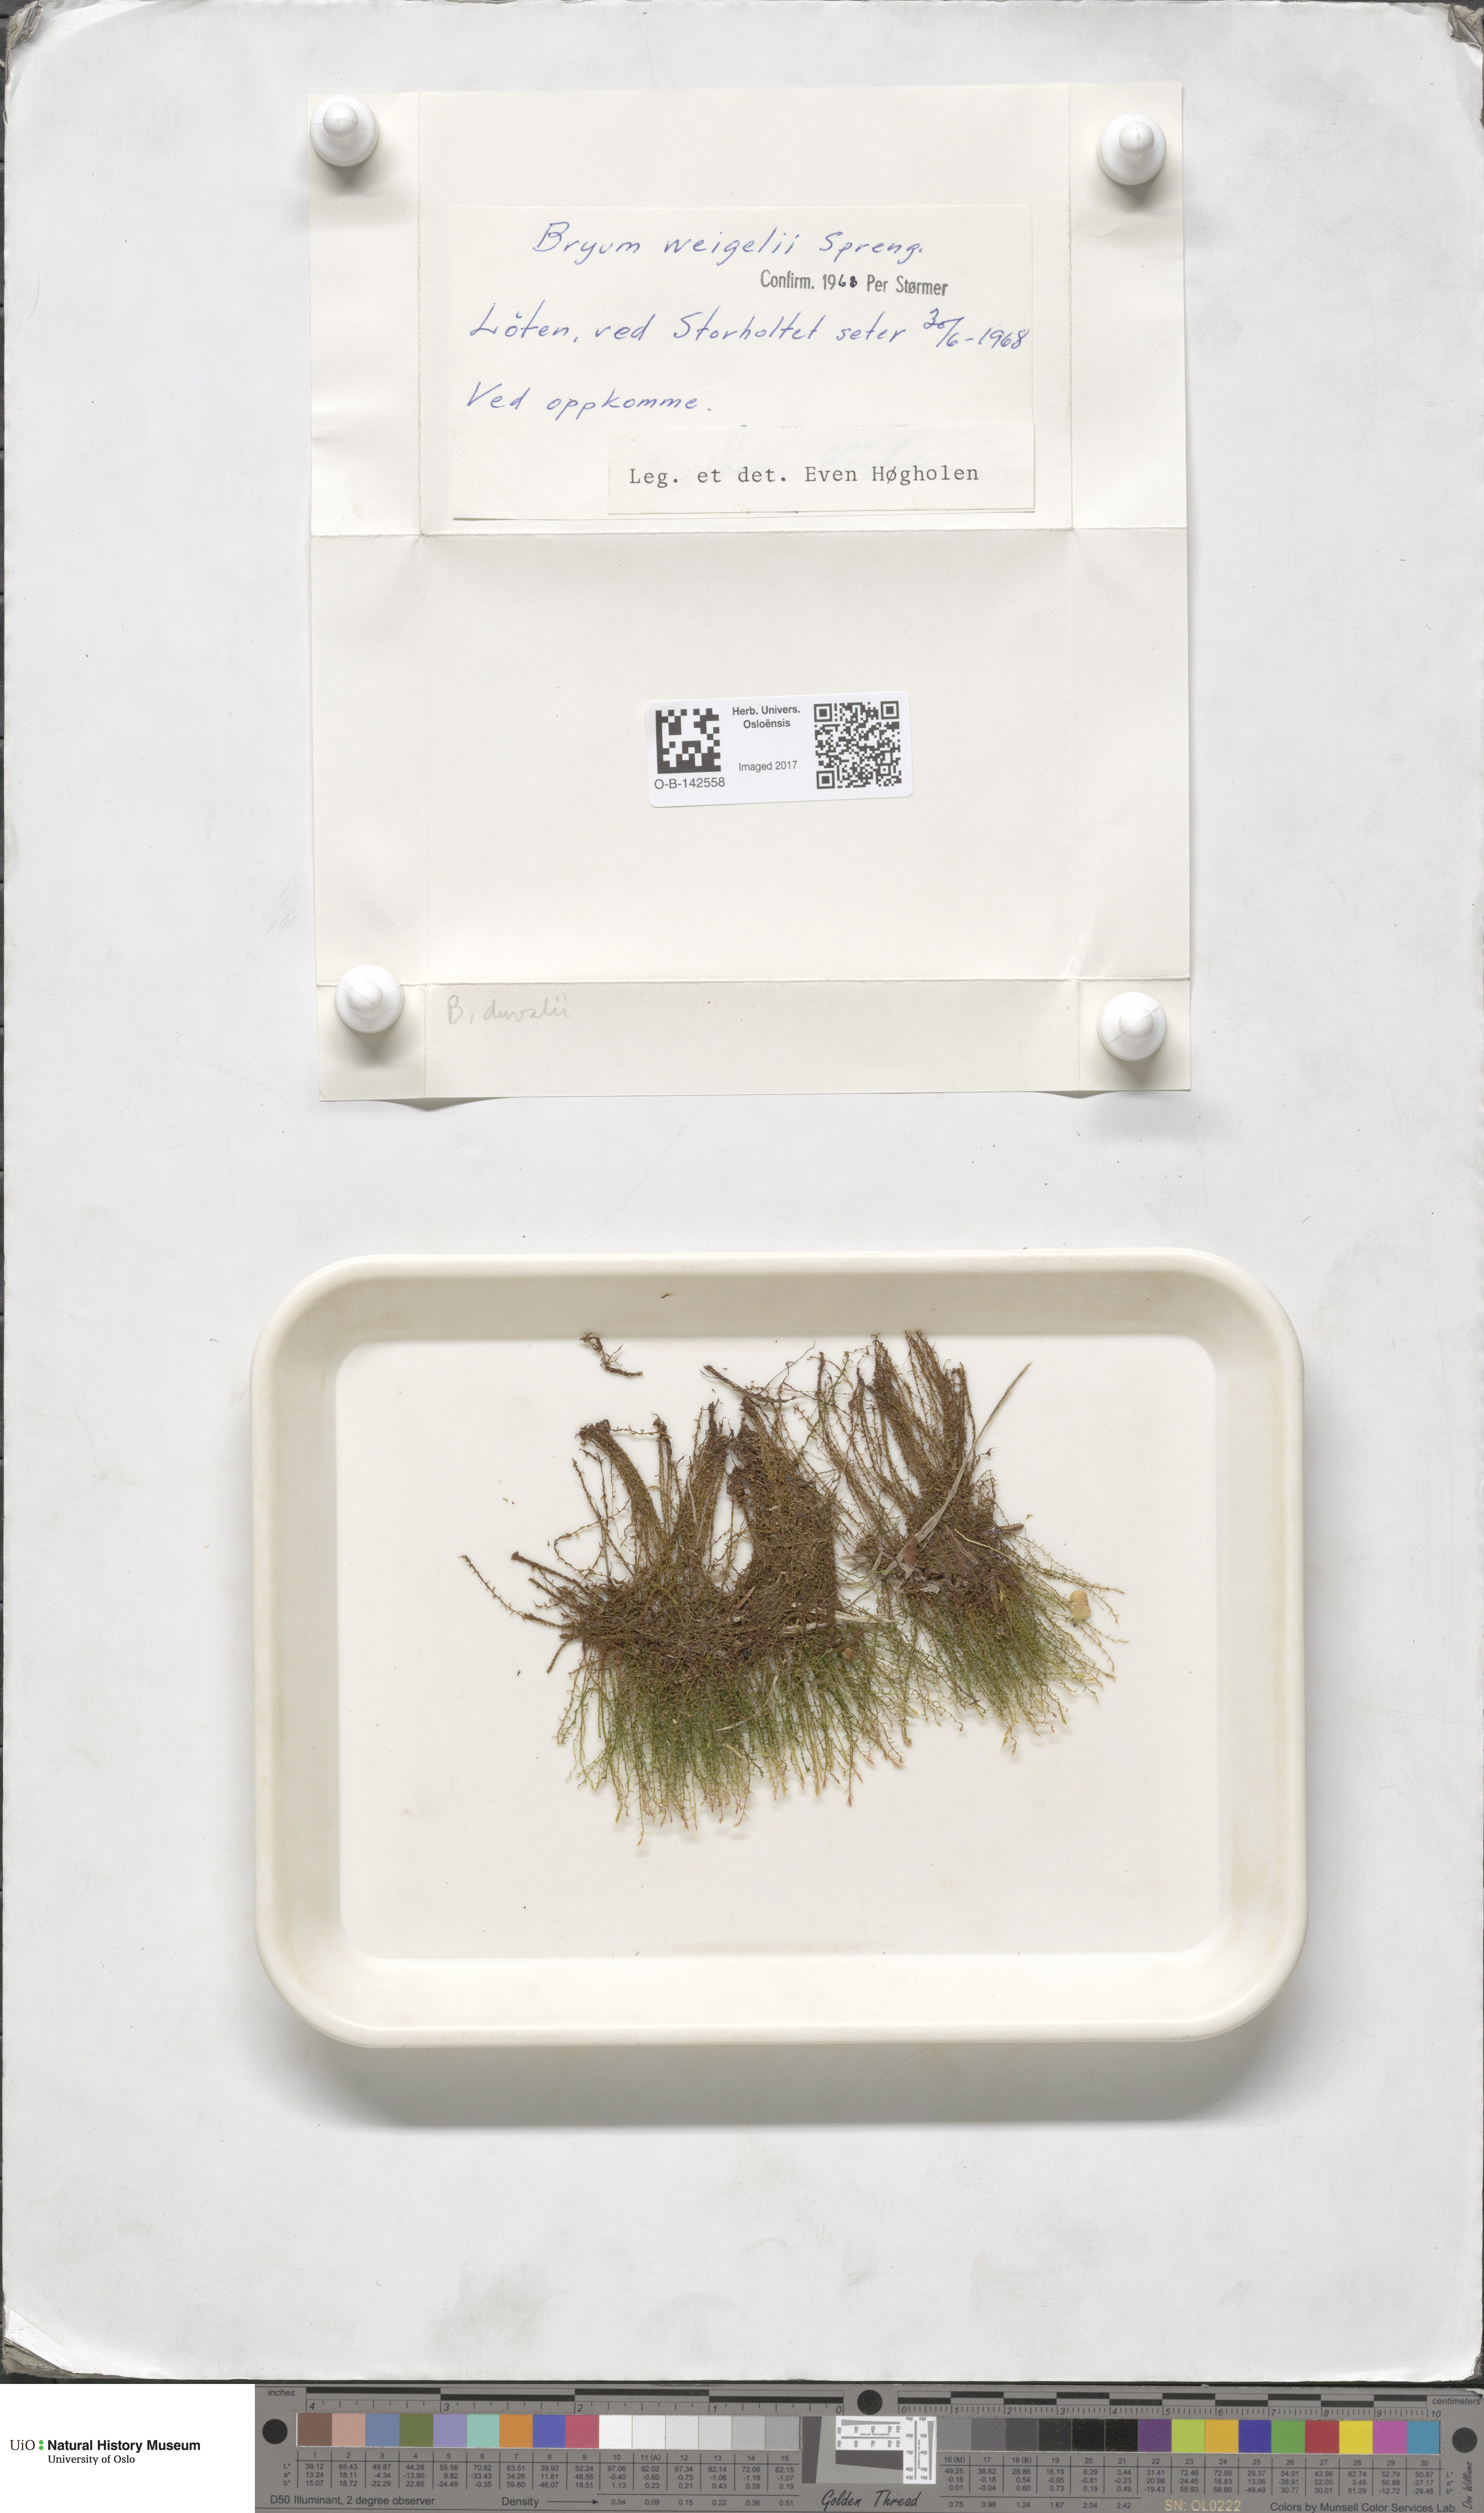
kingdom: Plantae
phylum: Bryophyta
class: Bryopsida
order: Bryales
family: Bryaceae
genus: Ptychostomum
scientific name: Ptychostomum weigelii
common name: Weigel's bryum moss
